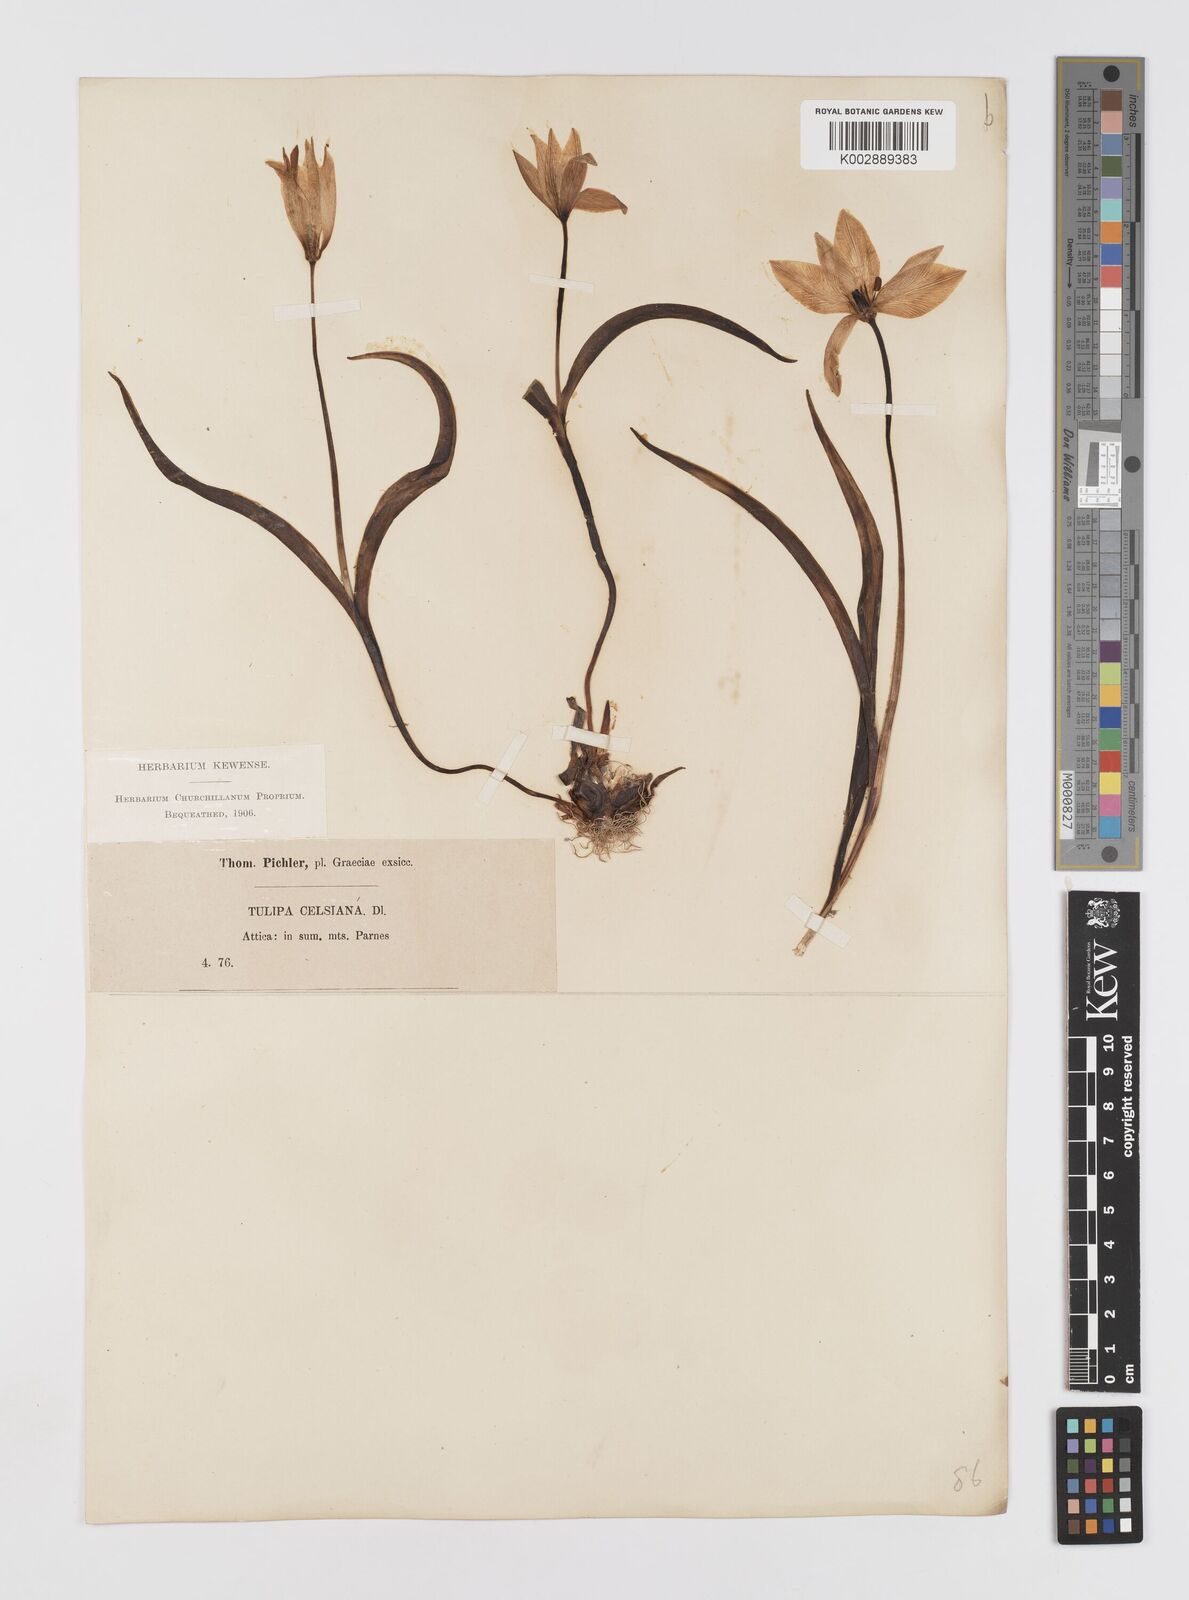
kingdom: Plantae
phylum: Tracheophyta
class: Liliopsida
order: Liliales
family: Liliaceae
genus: Tulipa
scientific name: Tulipa sylvestris
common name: Wild tulip
